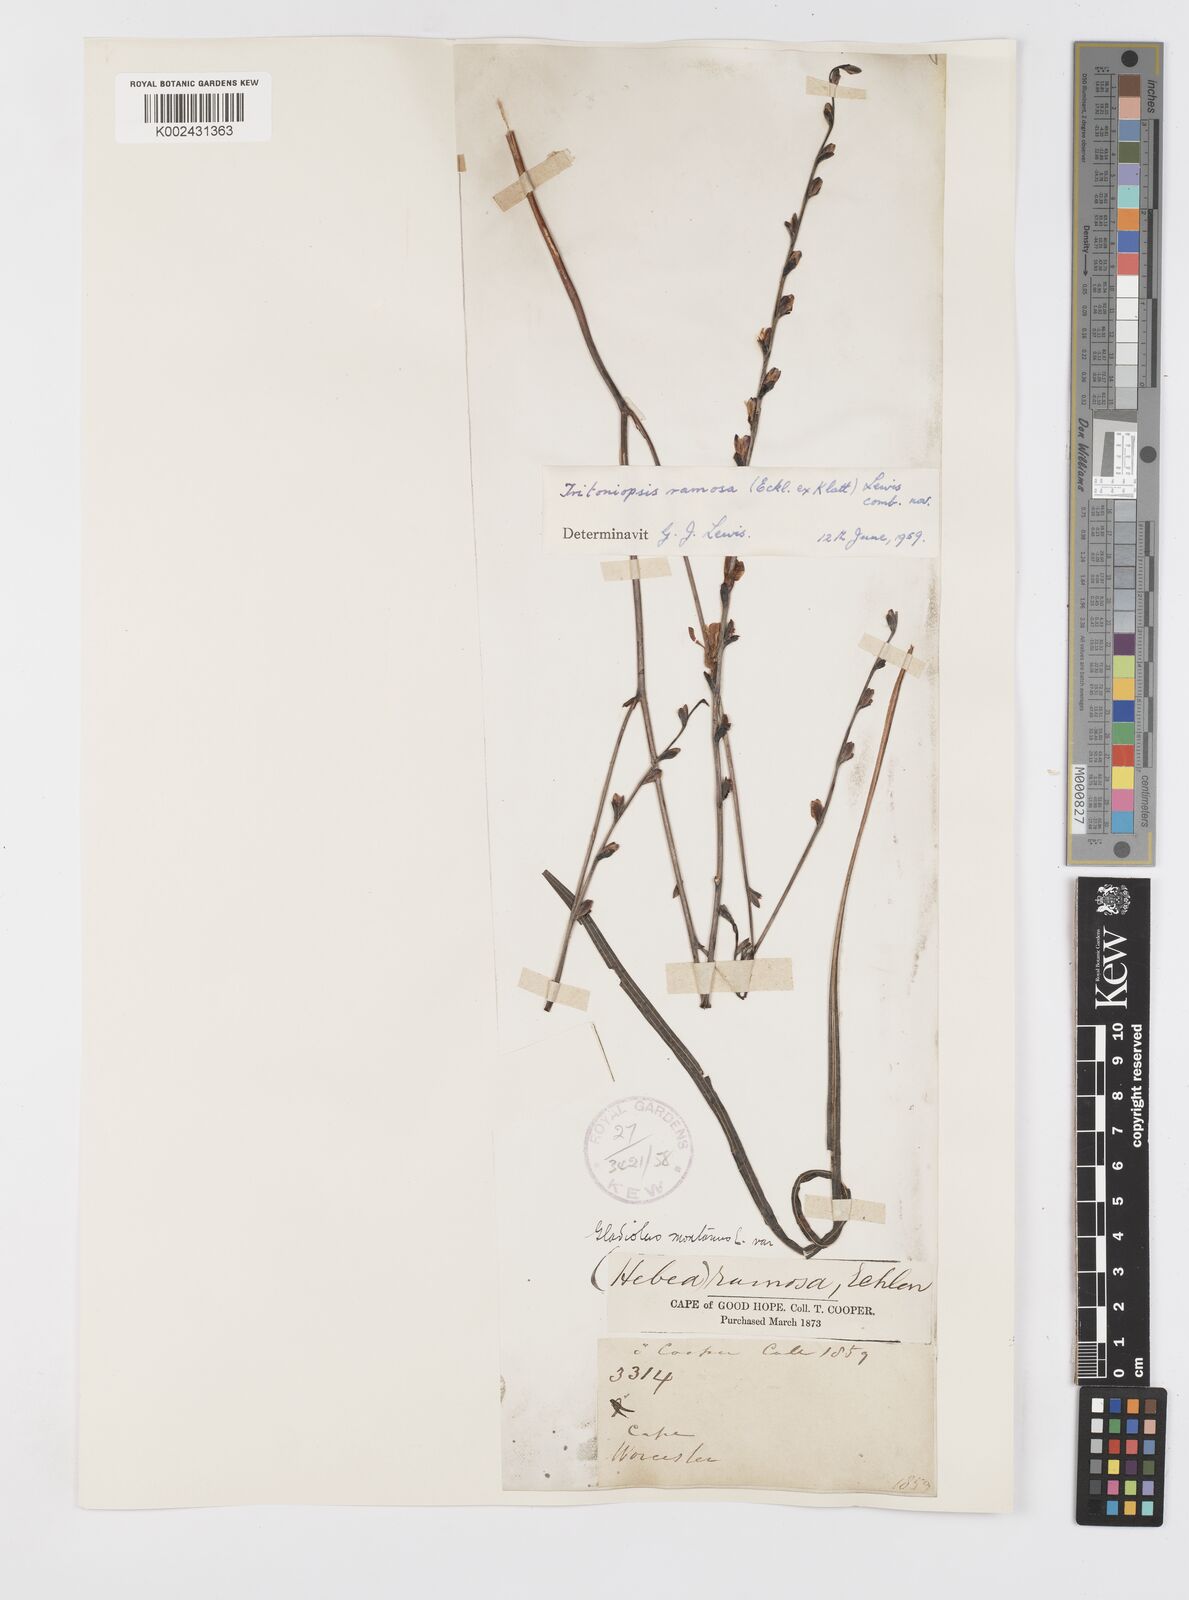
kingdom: Plantae
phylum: Tracheophyta
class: Liliopsida
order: Asparagales
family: Iridaceae
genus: Tritoniopsis
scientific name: Tritoniopsis ramosa
